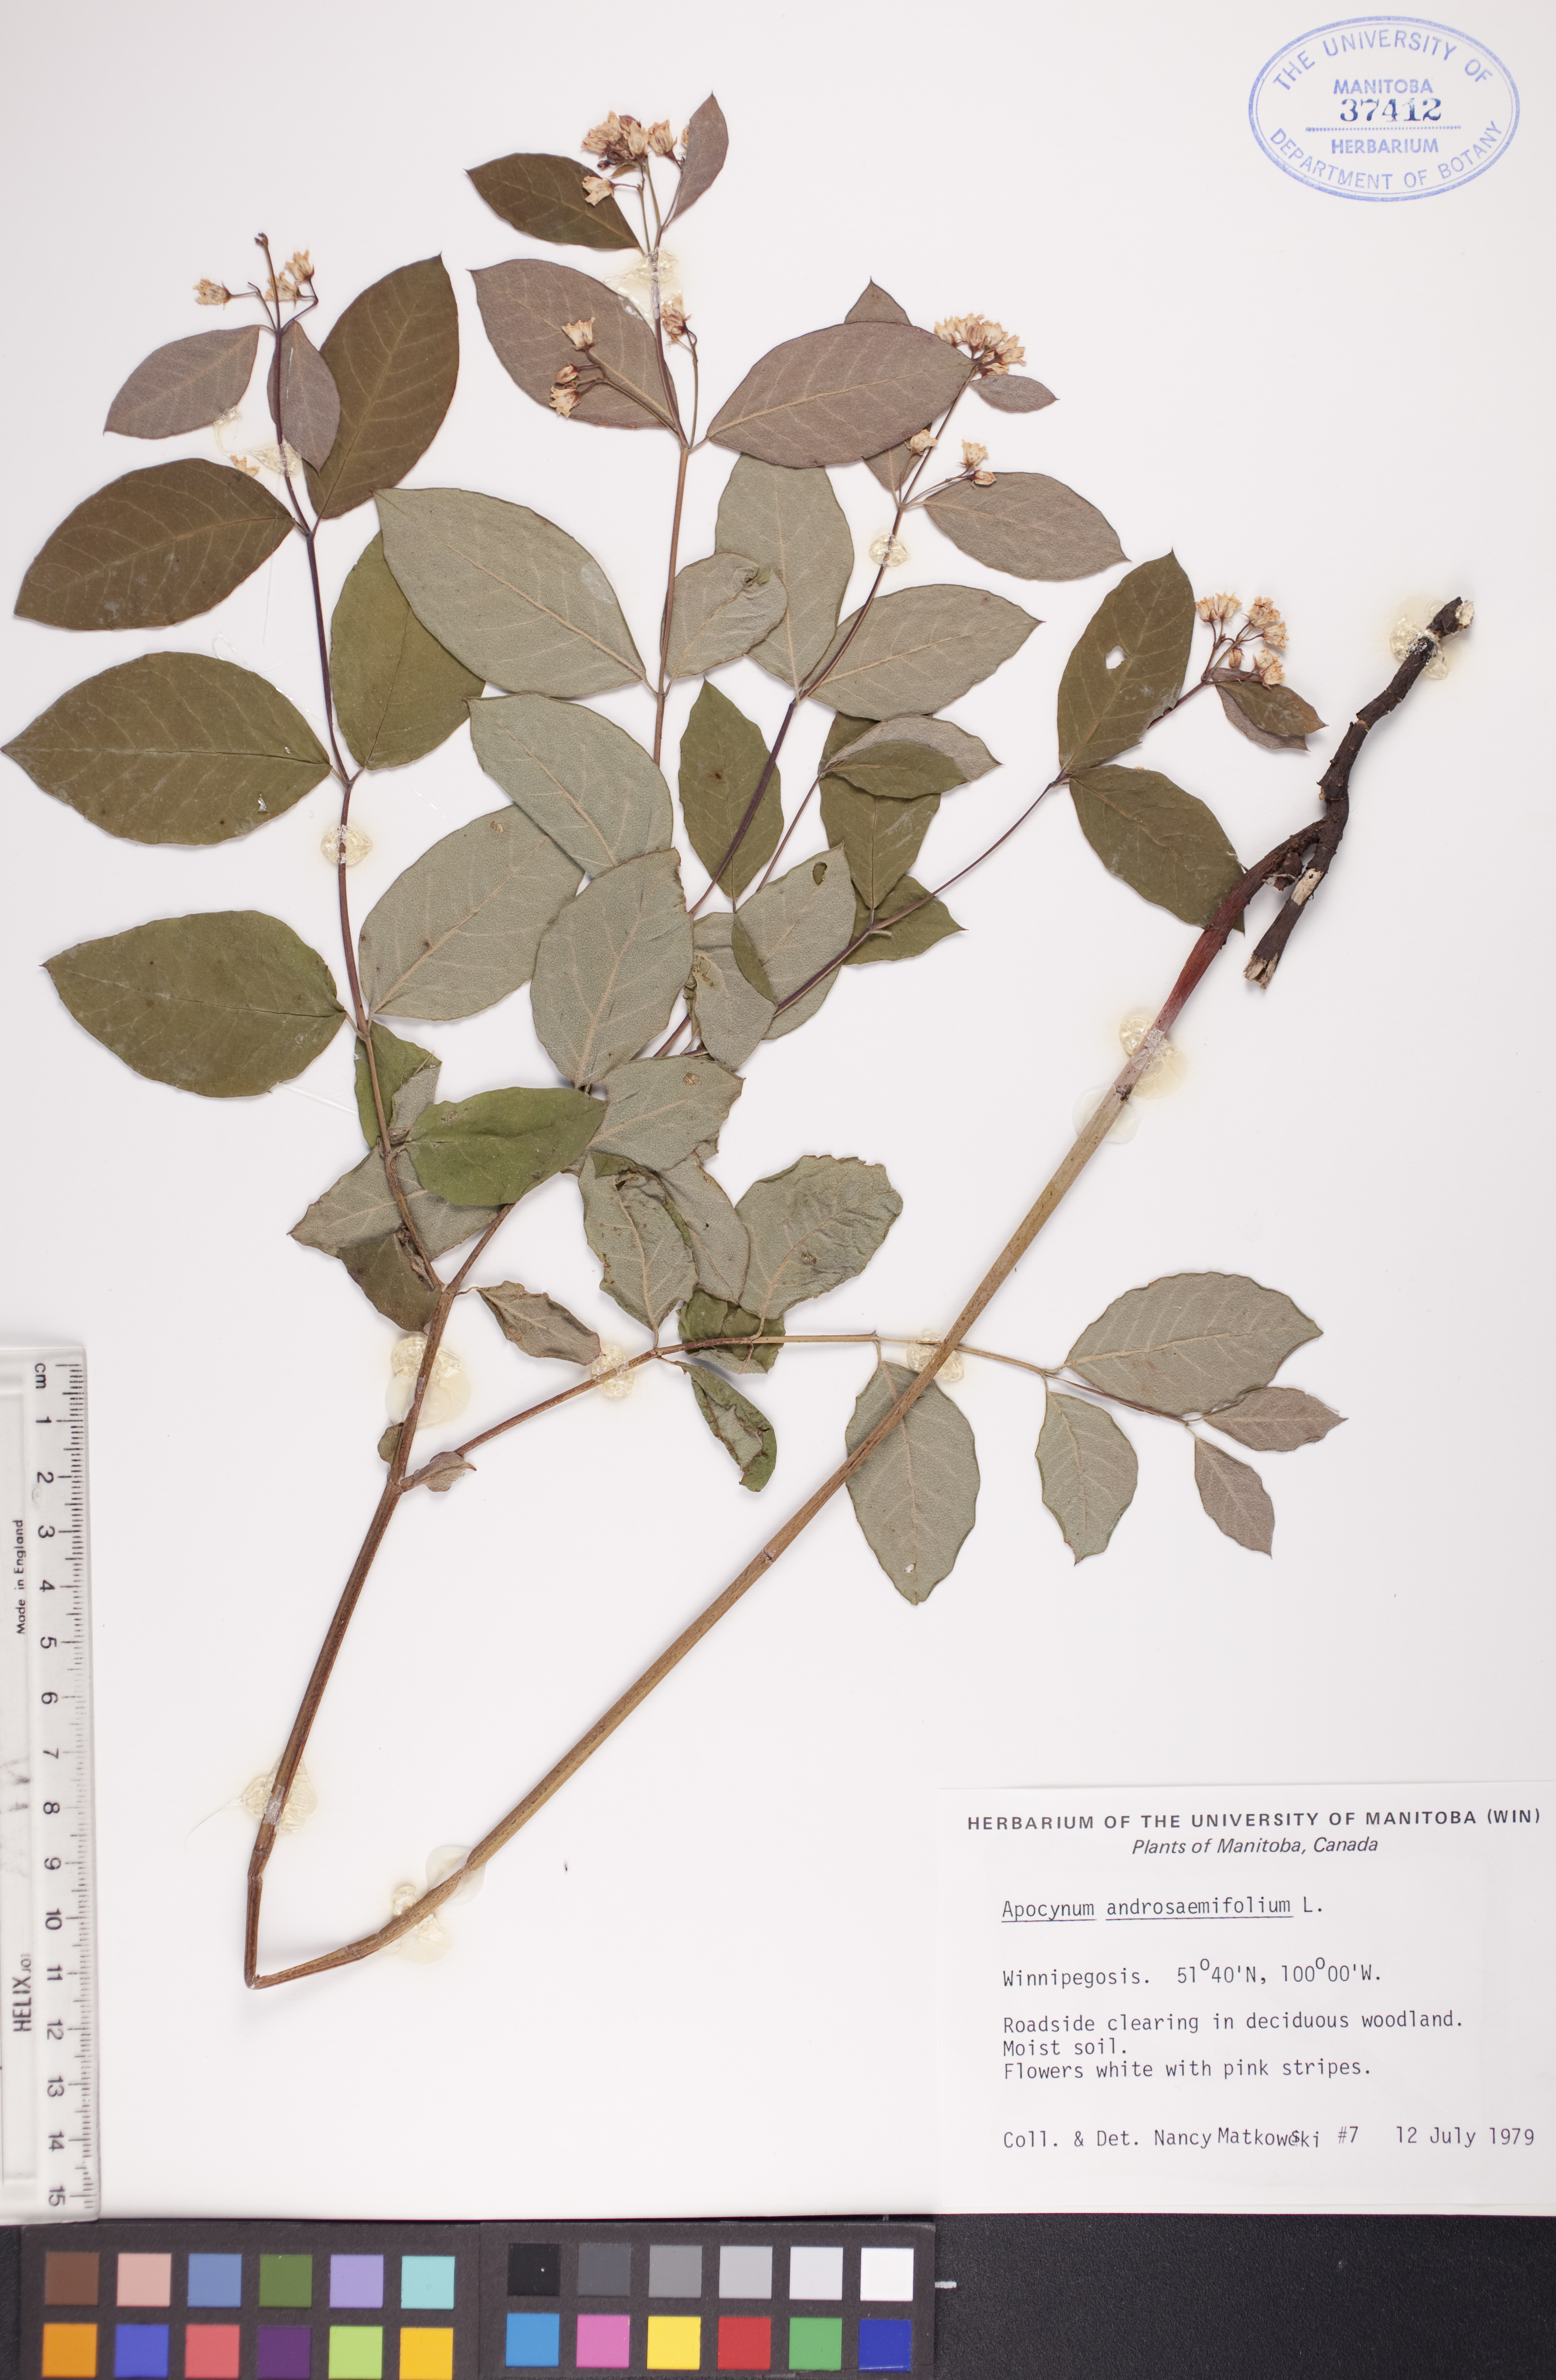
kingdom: Plantae
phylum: Tracheophyta
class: Magnoliopsida
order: Gentianales
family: Apocynaceae
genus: Apocynum
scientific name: Apocynum androsaemifolium
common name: Spreading dogbane
